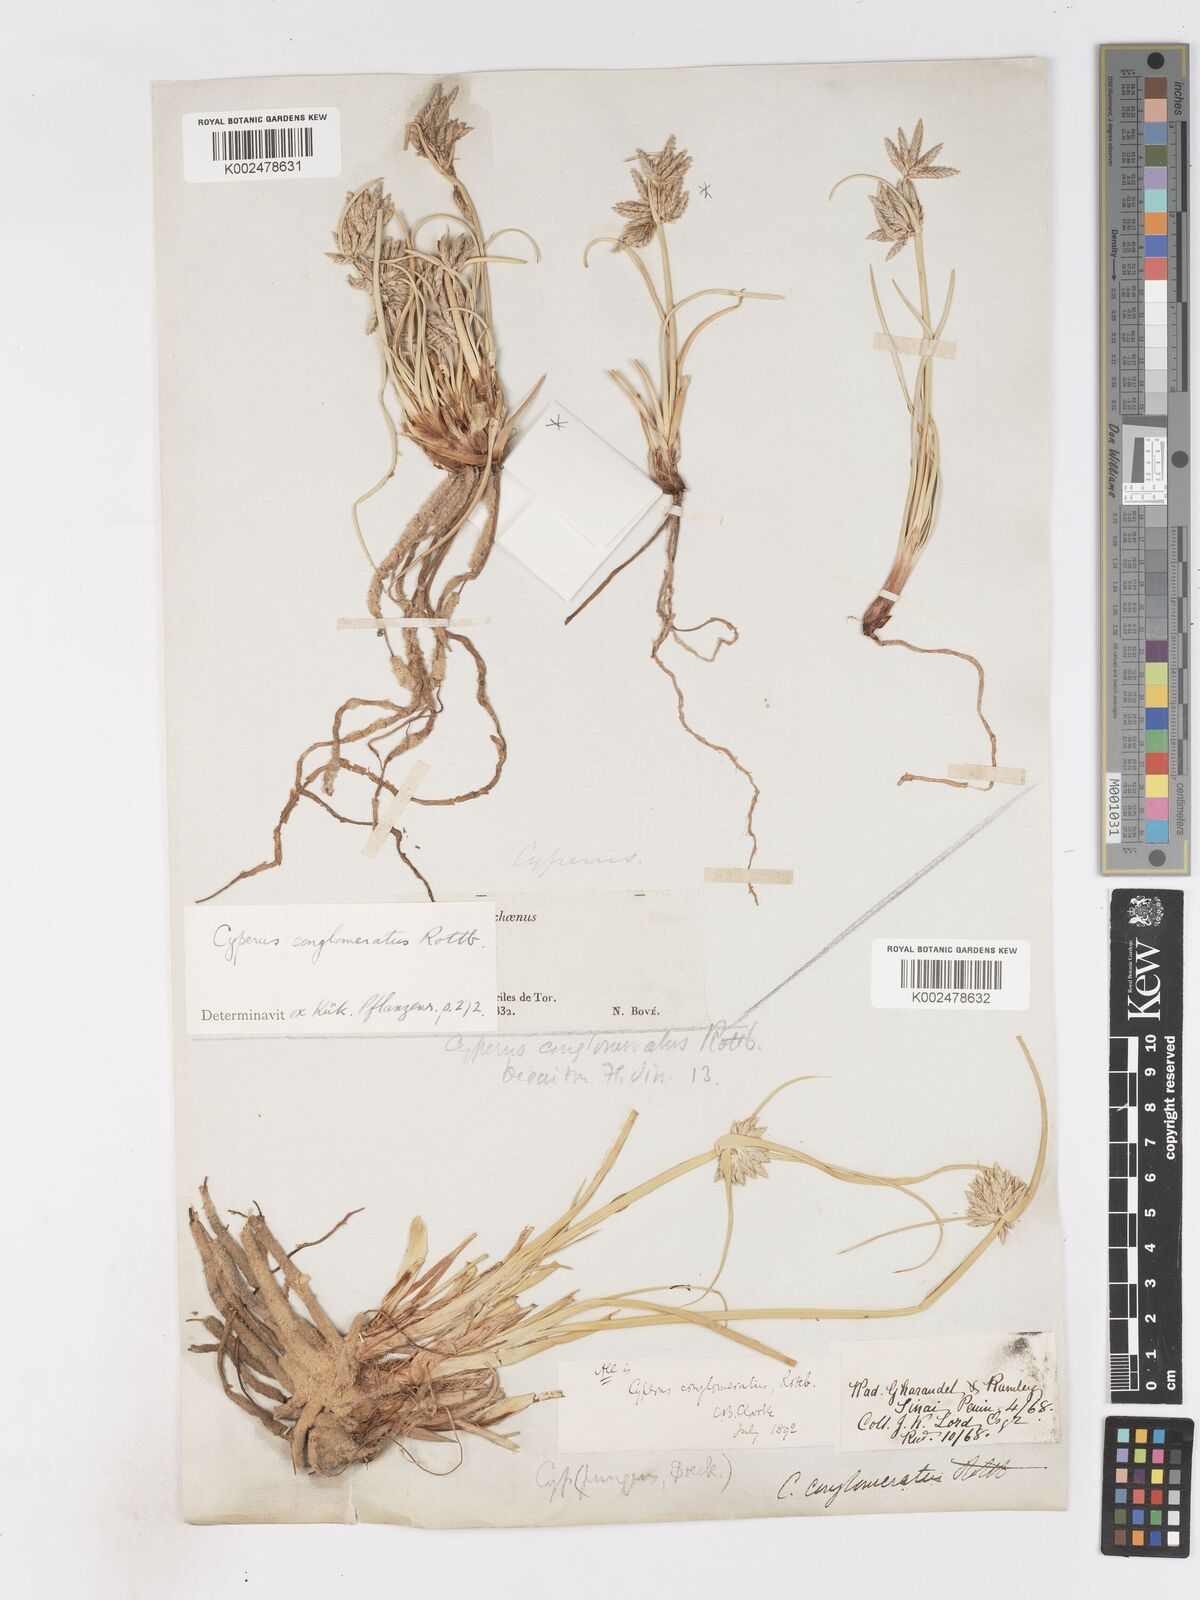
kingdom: Plantae
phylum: Tracheophyta
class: Liliopsida
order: Poales
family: Cyperaceae
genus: Cyperus
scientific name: Cyperus conglomeratus
